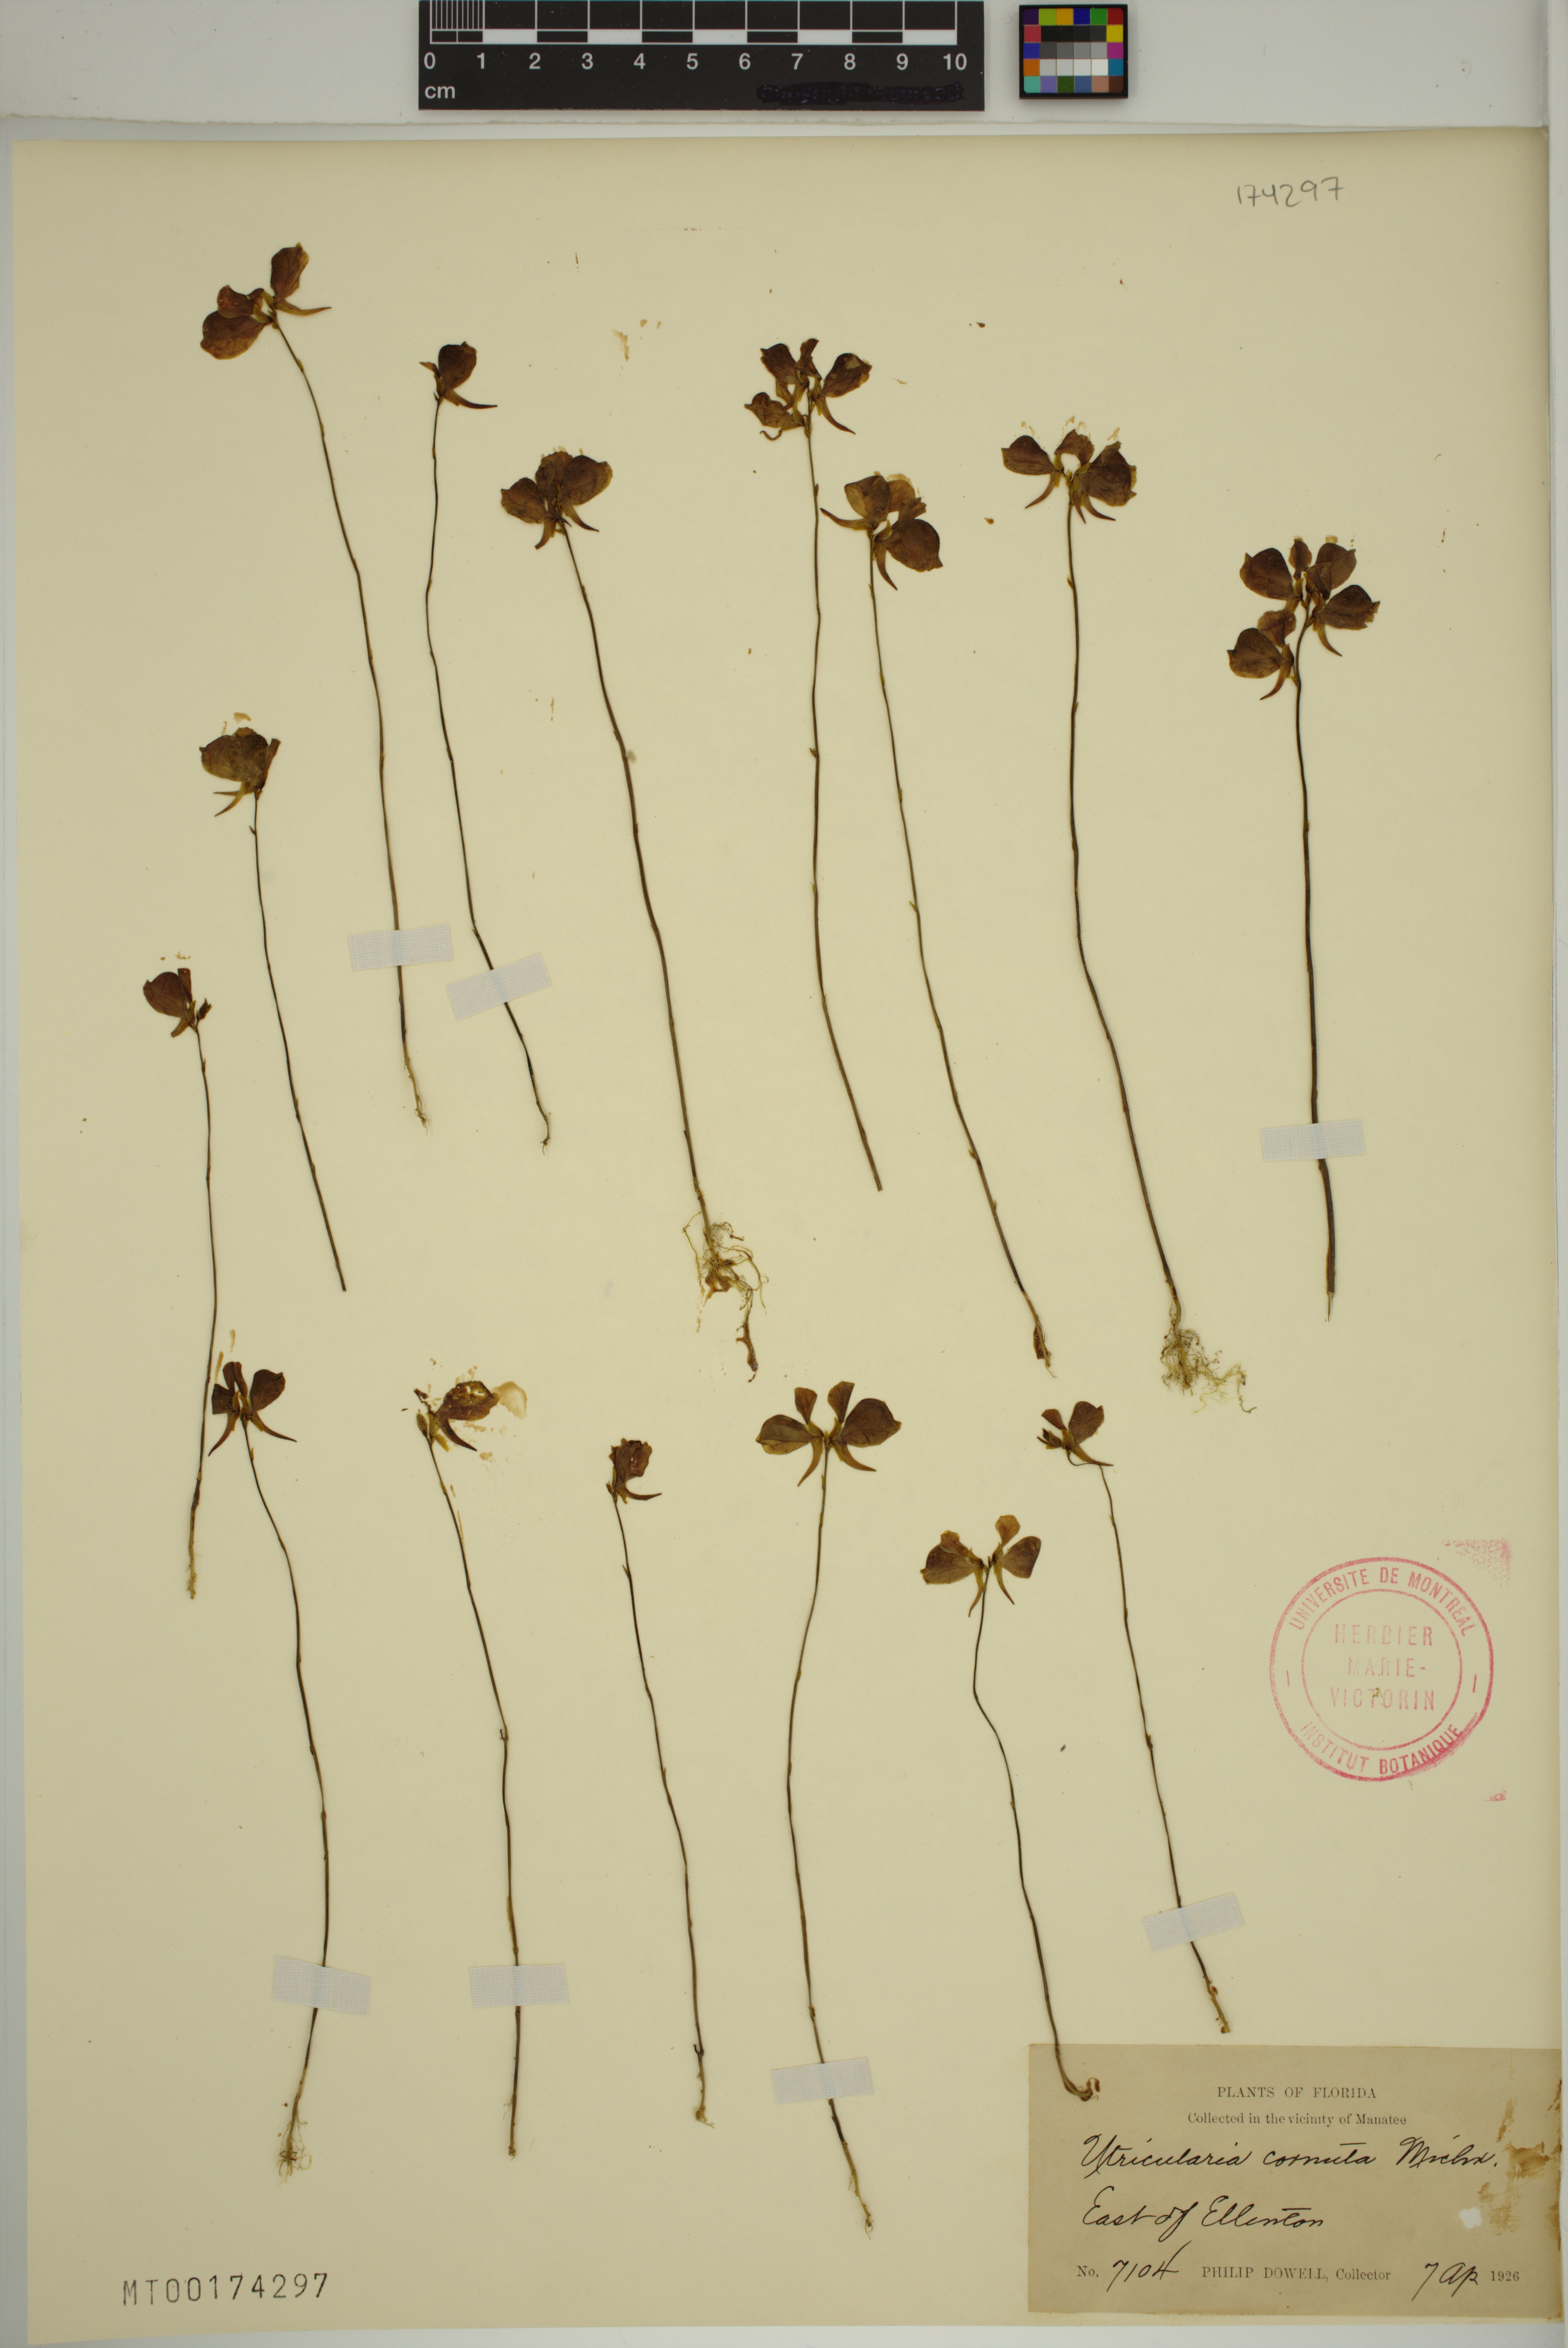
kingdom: Plantae
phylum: Tracheophyta
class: Magnoliopsida
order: Lamiales
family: Lentibulariaceae
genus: Utricularia
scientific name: Utricularia cornuta
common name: Horned bladderwort
